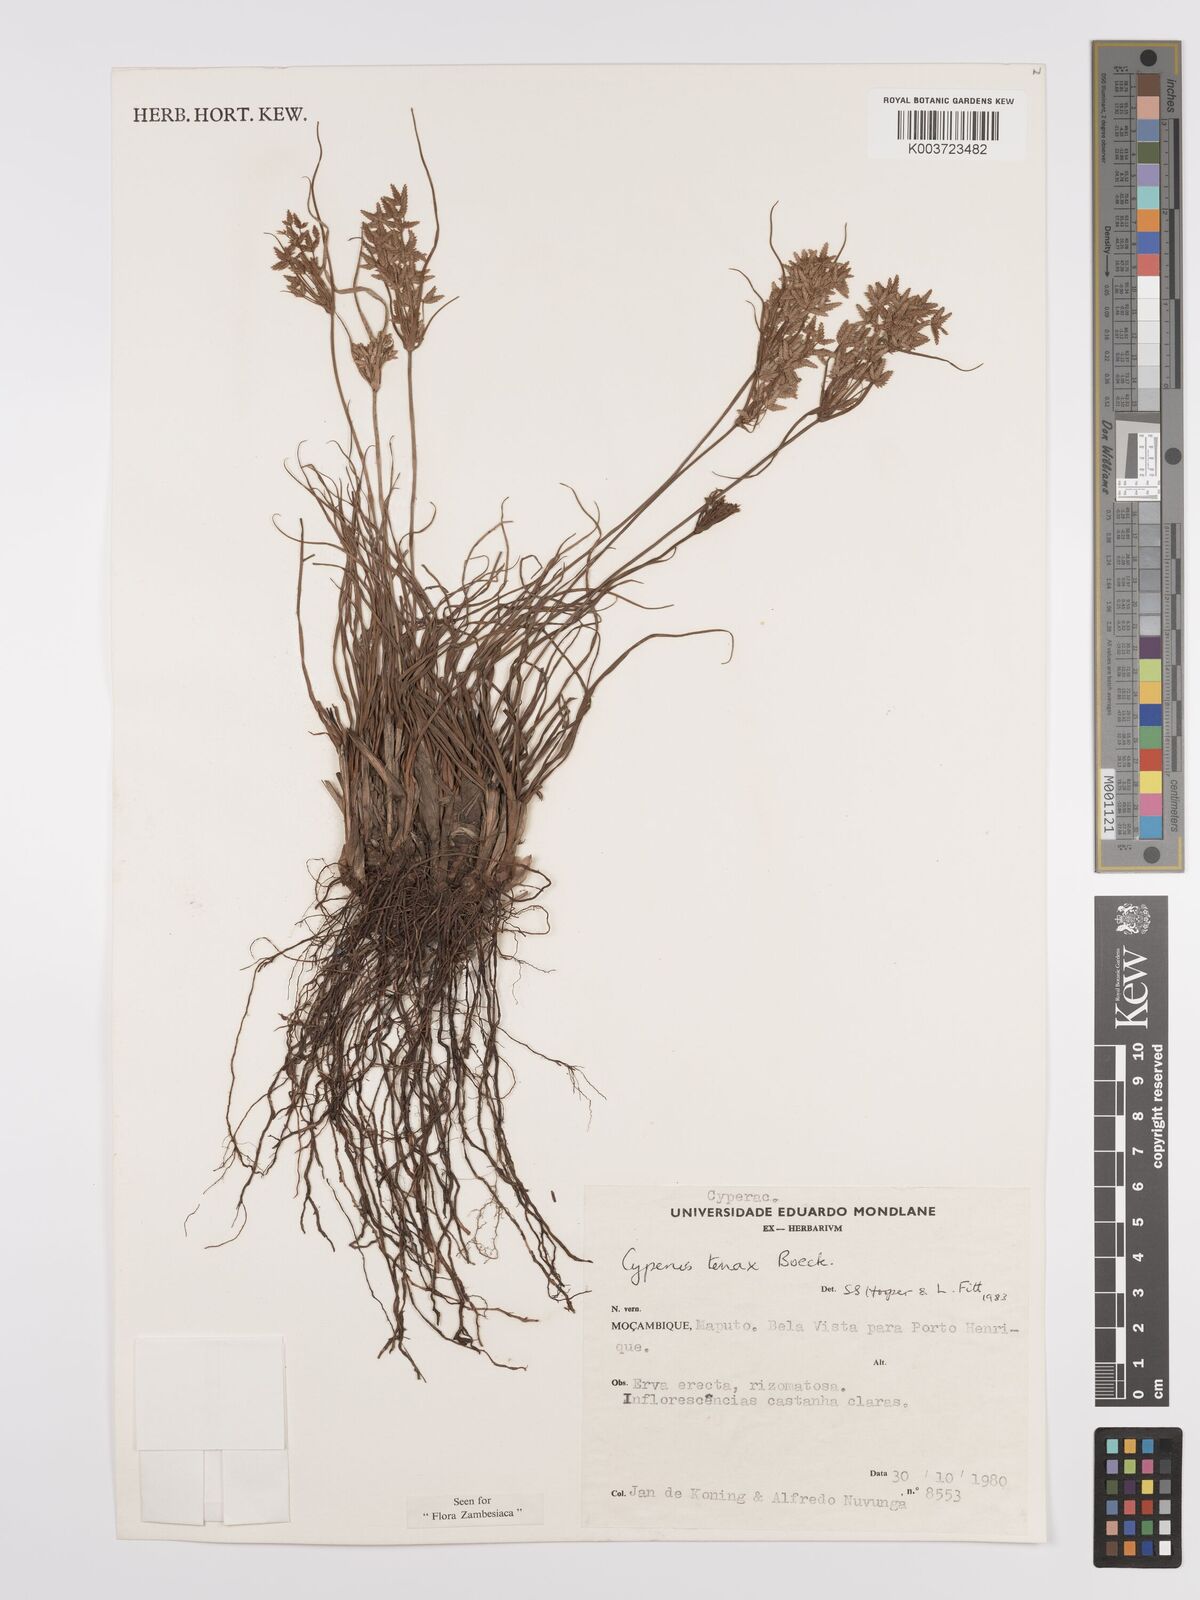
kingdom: Plantae
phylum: Tracheophyta
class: Liliopsida
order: Poales
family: Cyperaceae
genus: Cyperus
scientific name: Cyperus tenax
